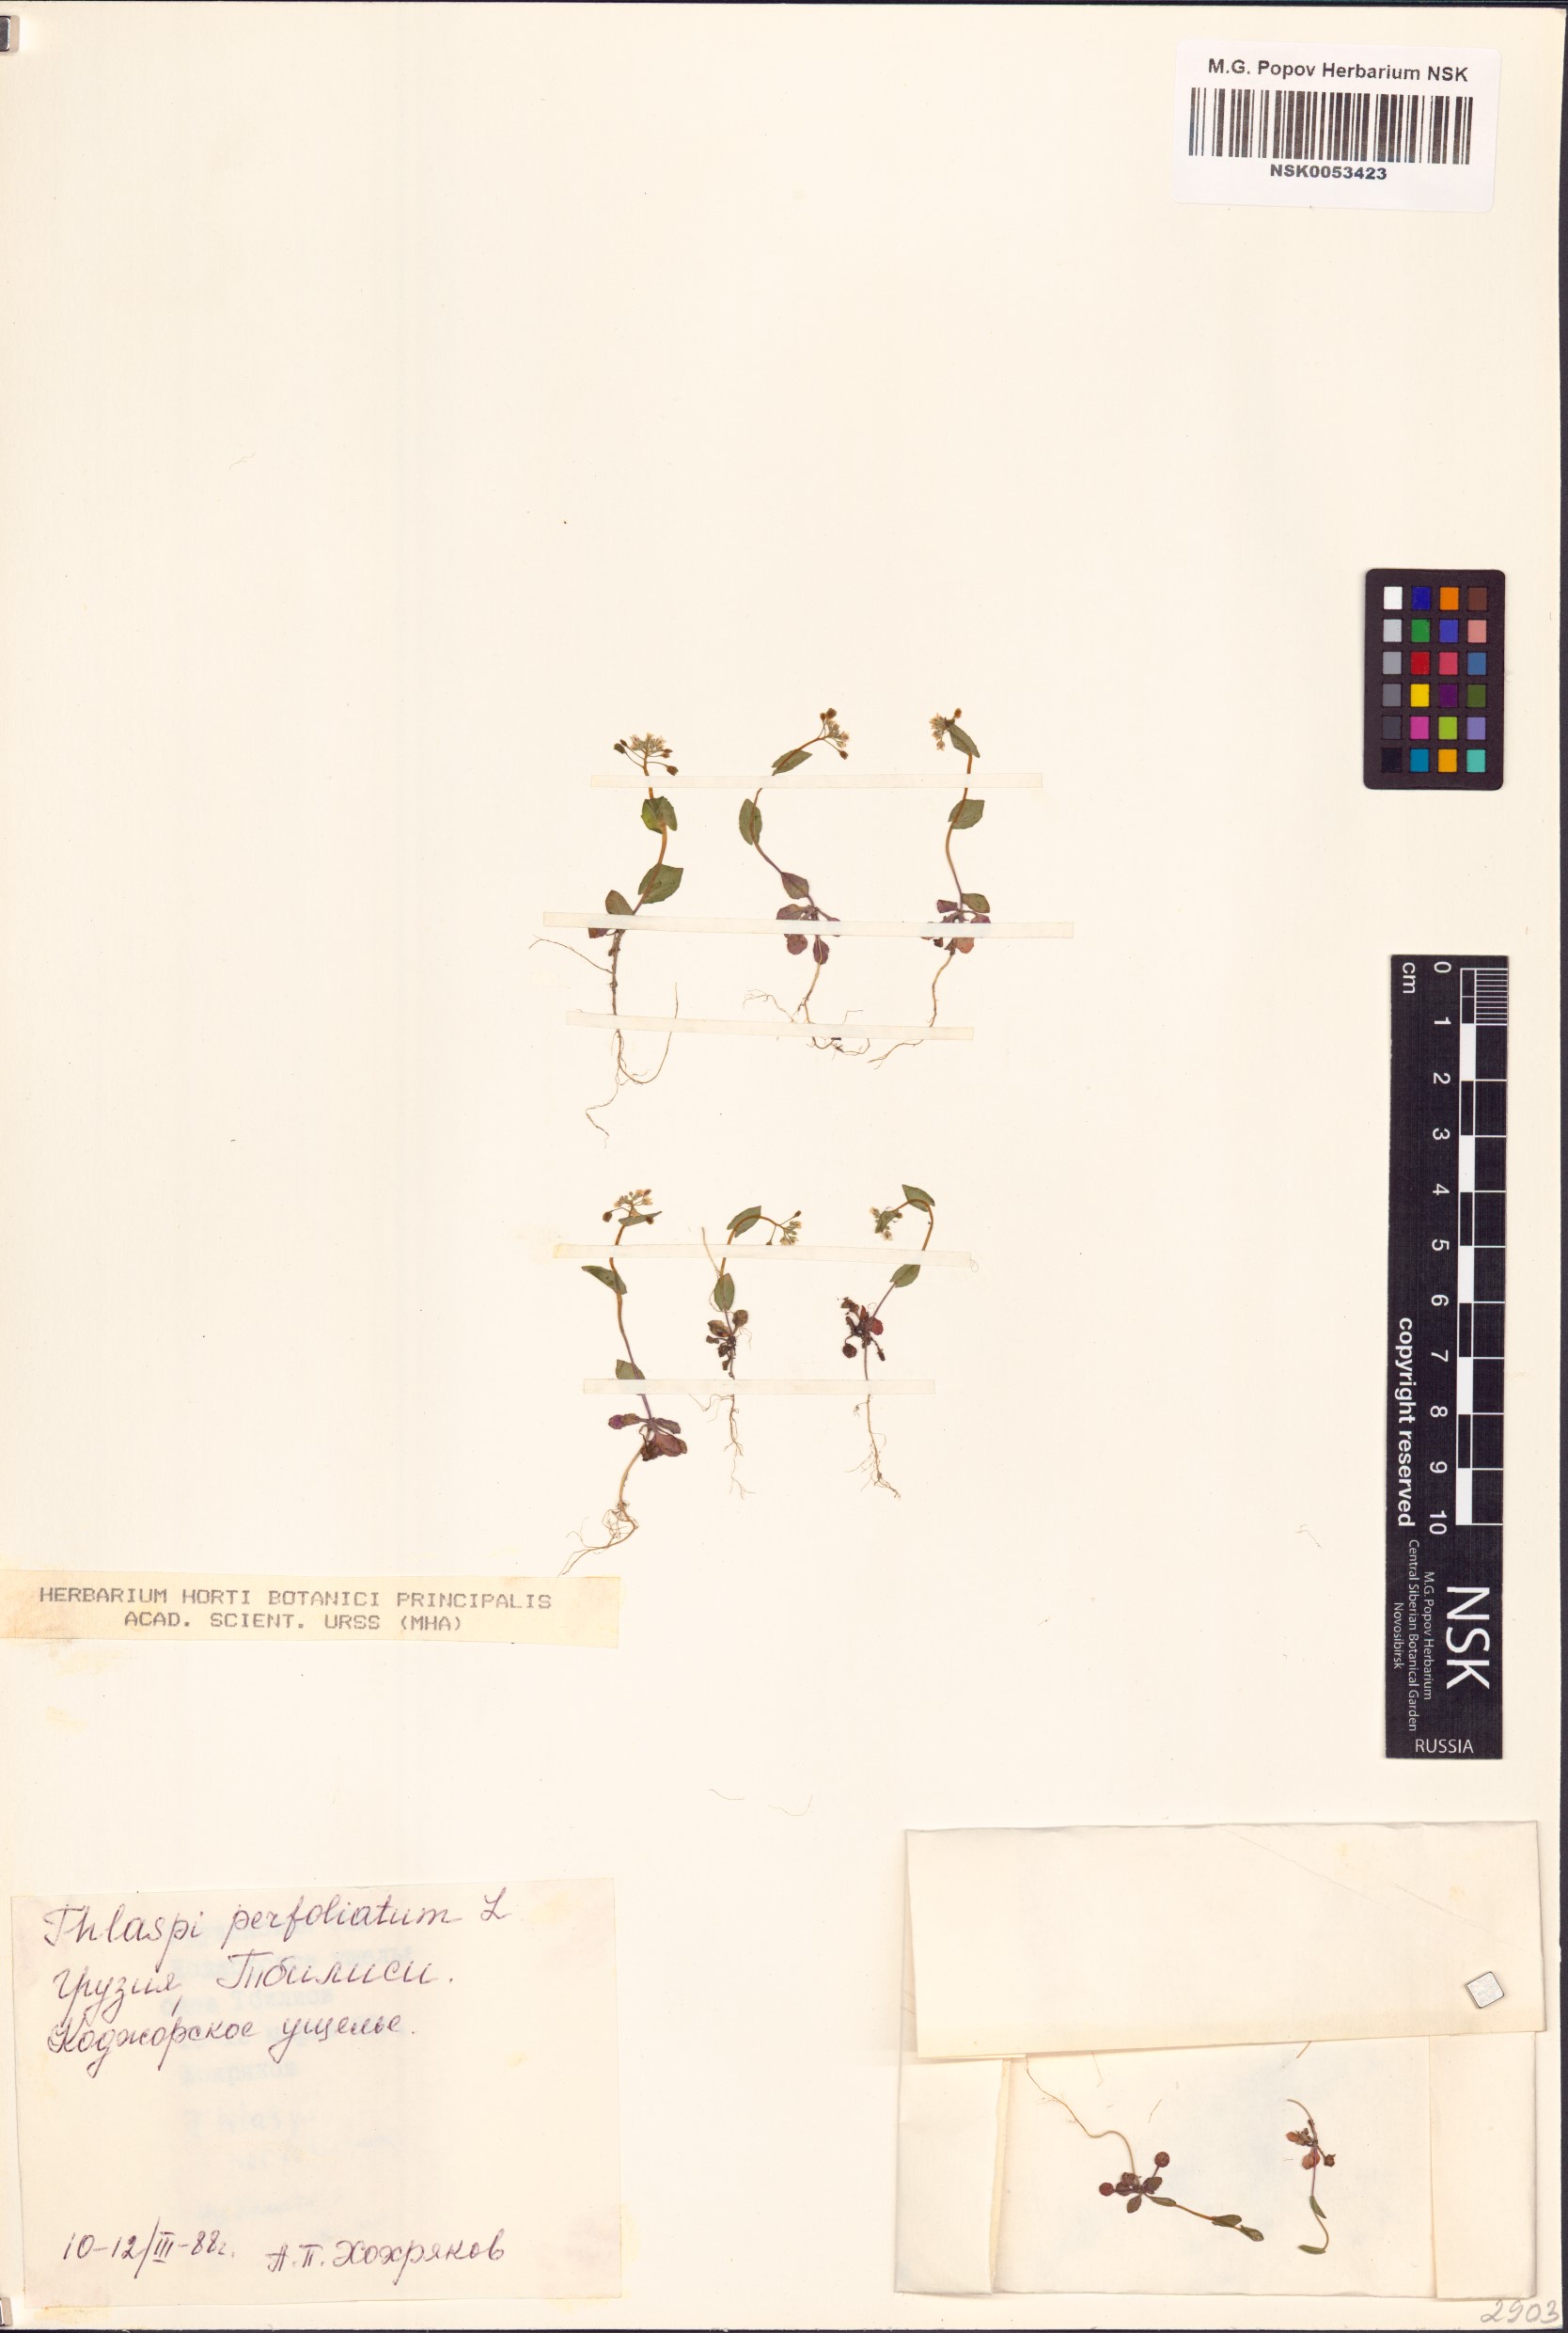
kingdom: Plantae
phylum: Tracheophyta
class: Magnoliopsida
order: Brassicales
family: Brassicaceae
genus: Noccaea
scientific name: Noccaea perfoliata
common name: Perfoliate pennycress
